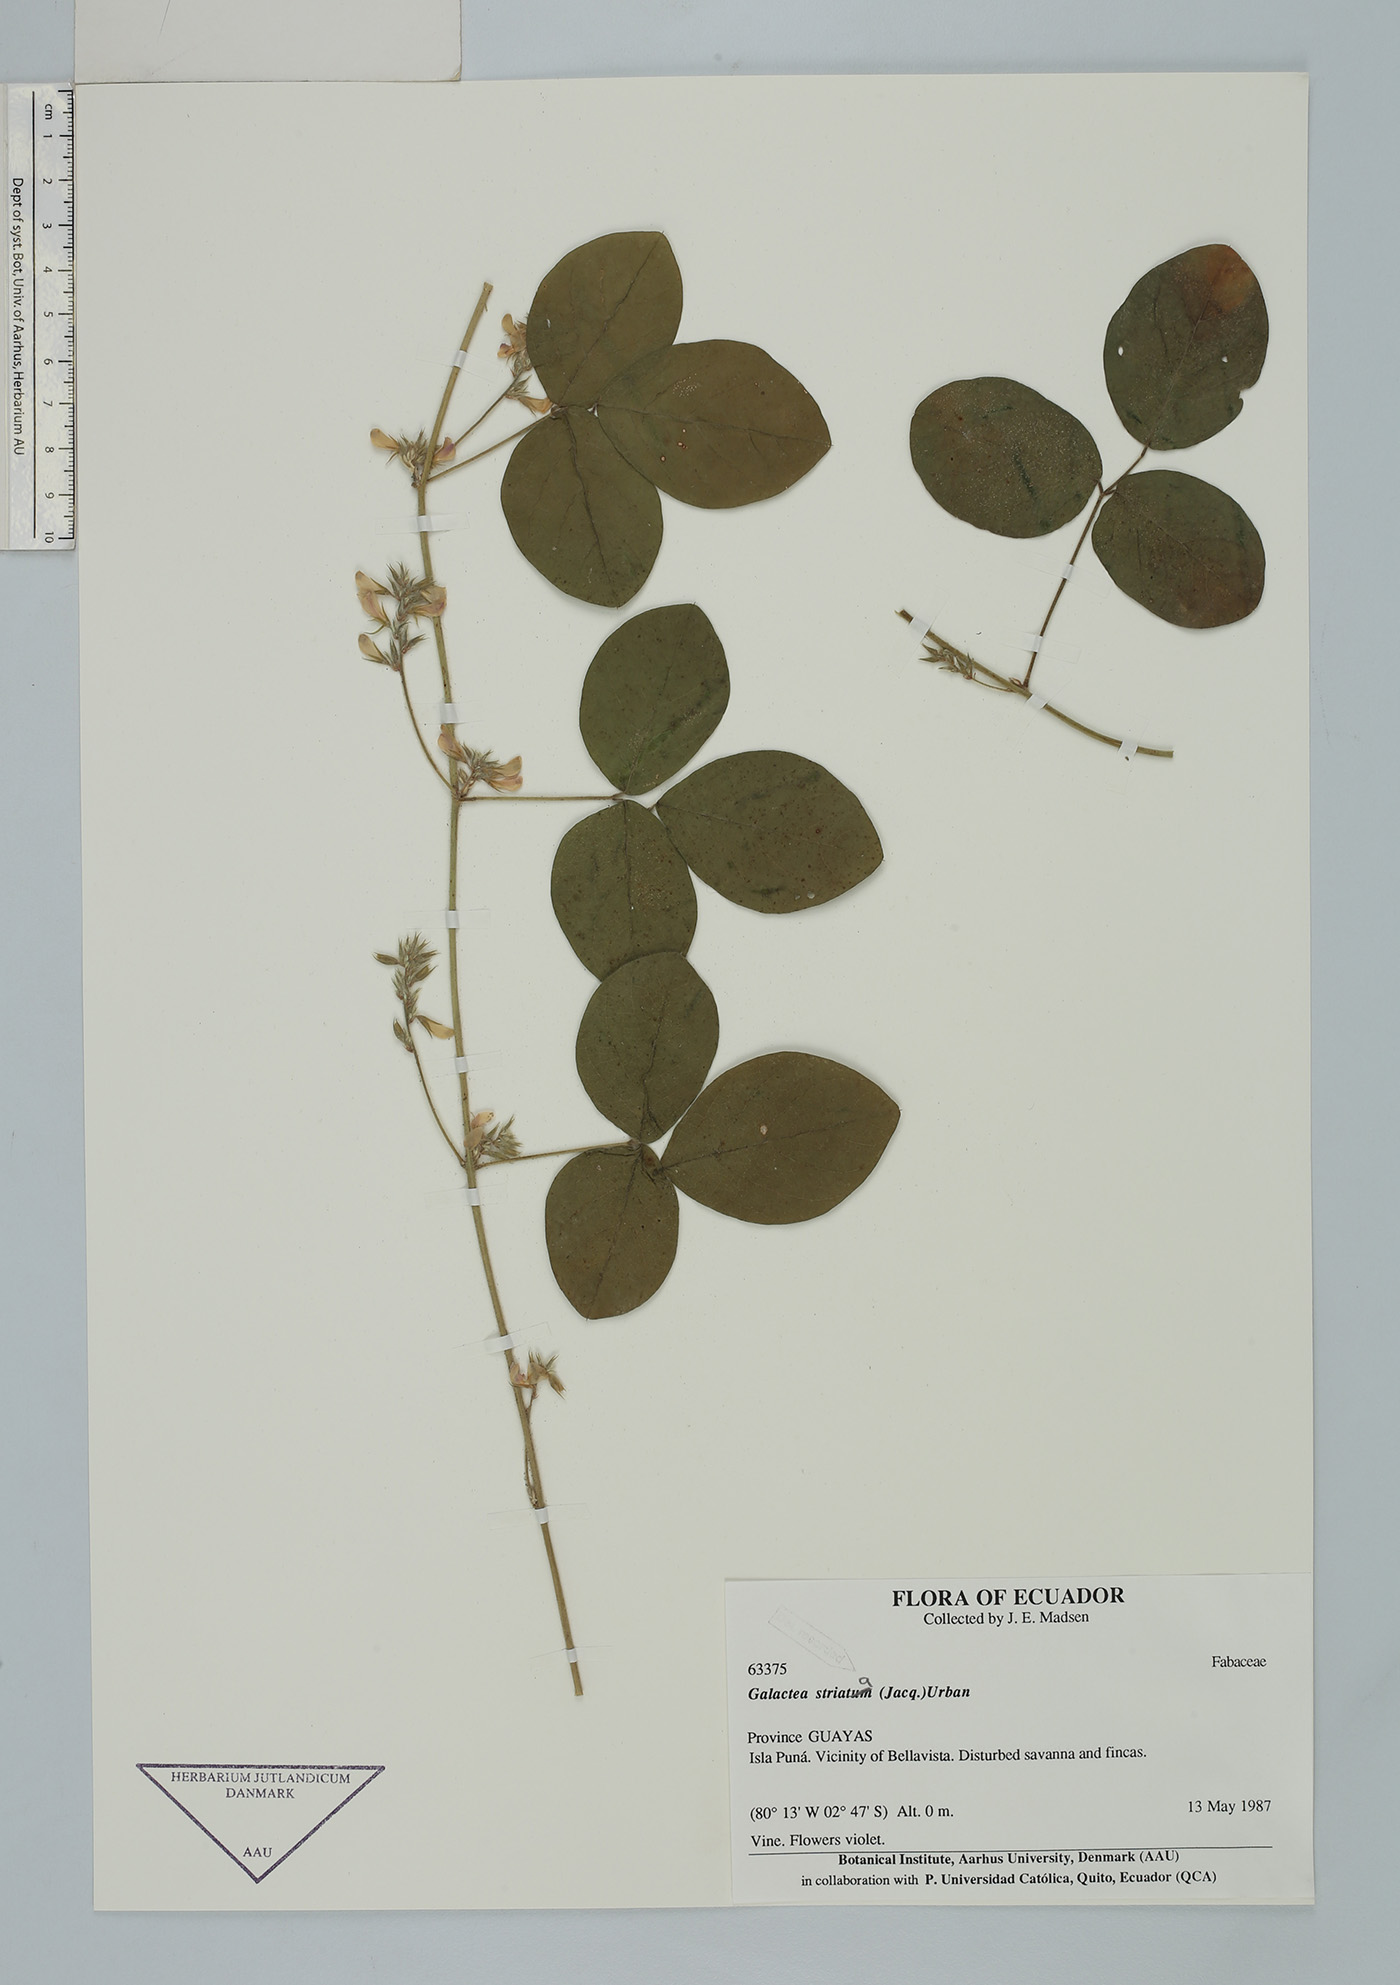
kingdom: Plantae
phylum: Tracheophyta
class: Magnoliopsida
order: Fabales
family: Fabaceae
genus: Galactia
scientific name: Galactia striata
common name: Florida hammock milkpea
